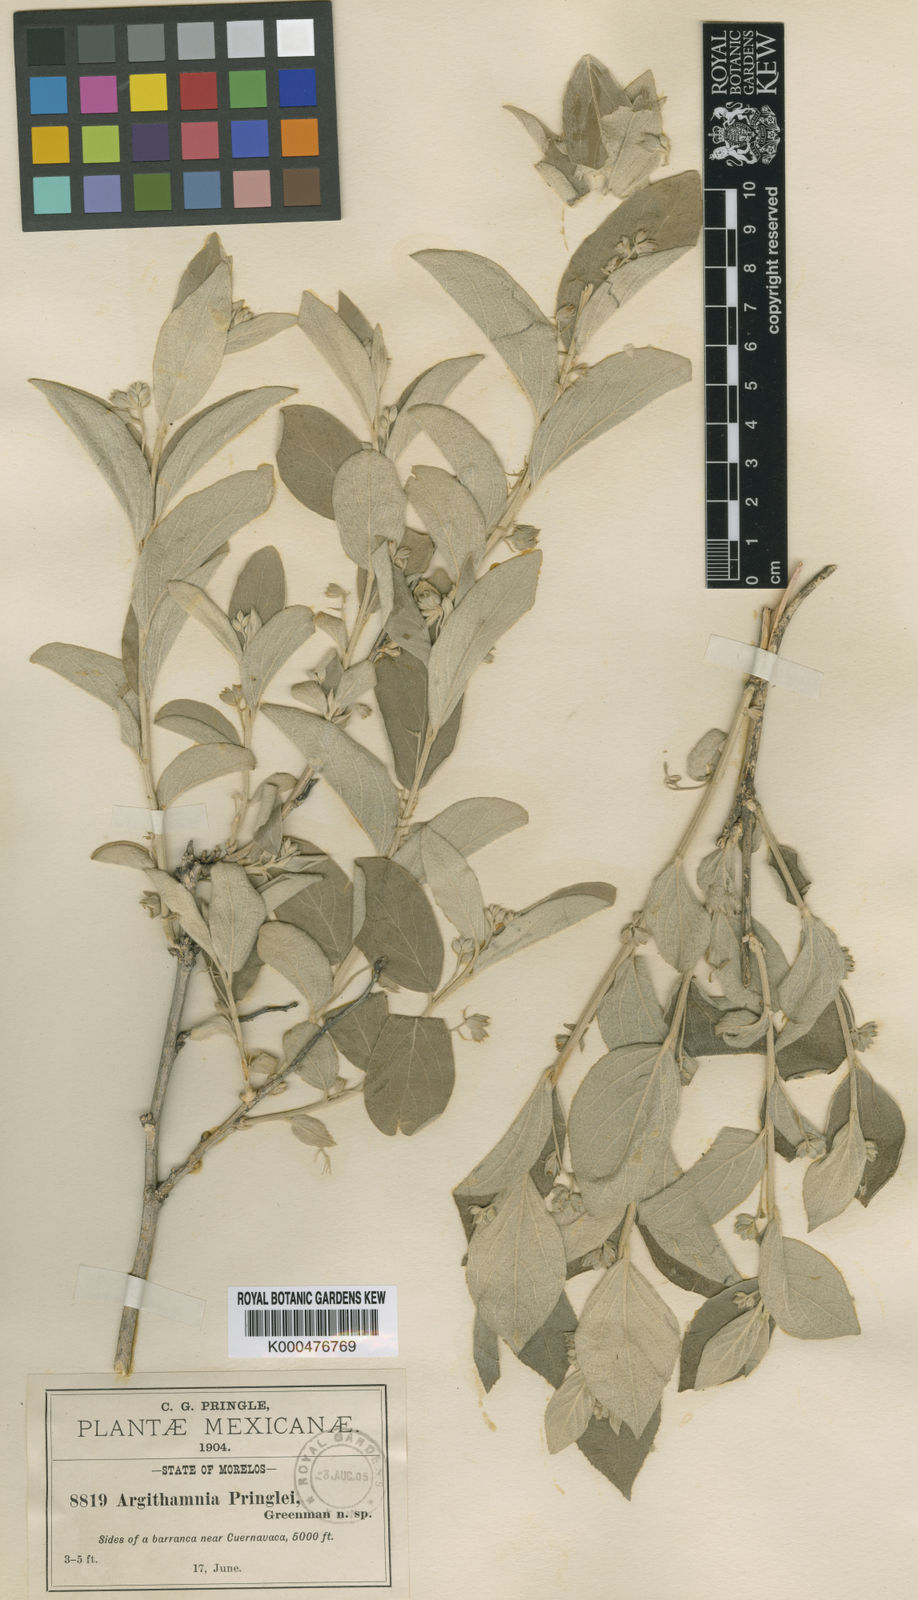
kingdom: Plantae
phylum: Tracheophyta
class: Magnoliopsida
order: Malpighiales
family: Euphorbiaceae
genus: Ditaxis
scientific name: Ditaxis pringlei
